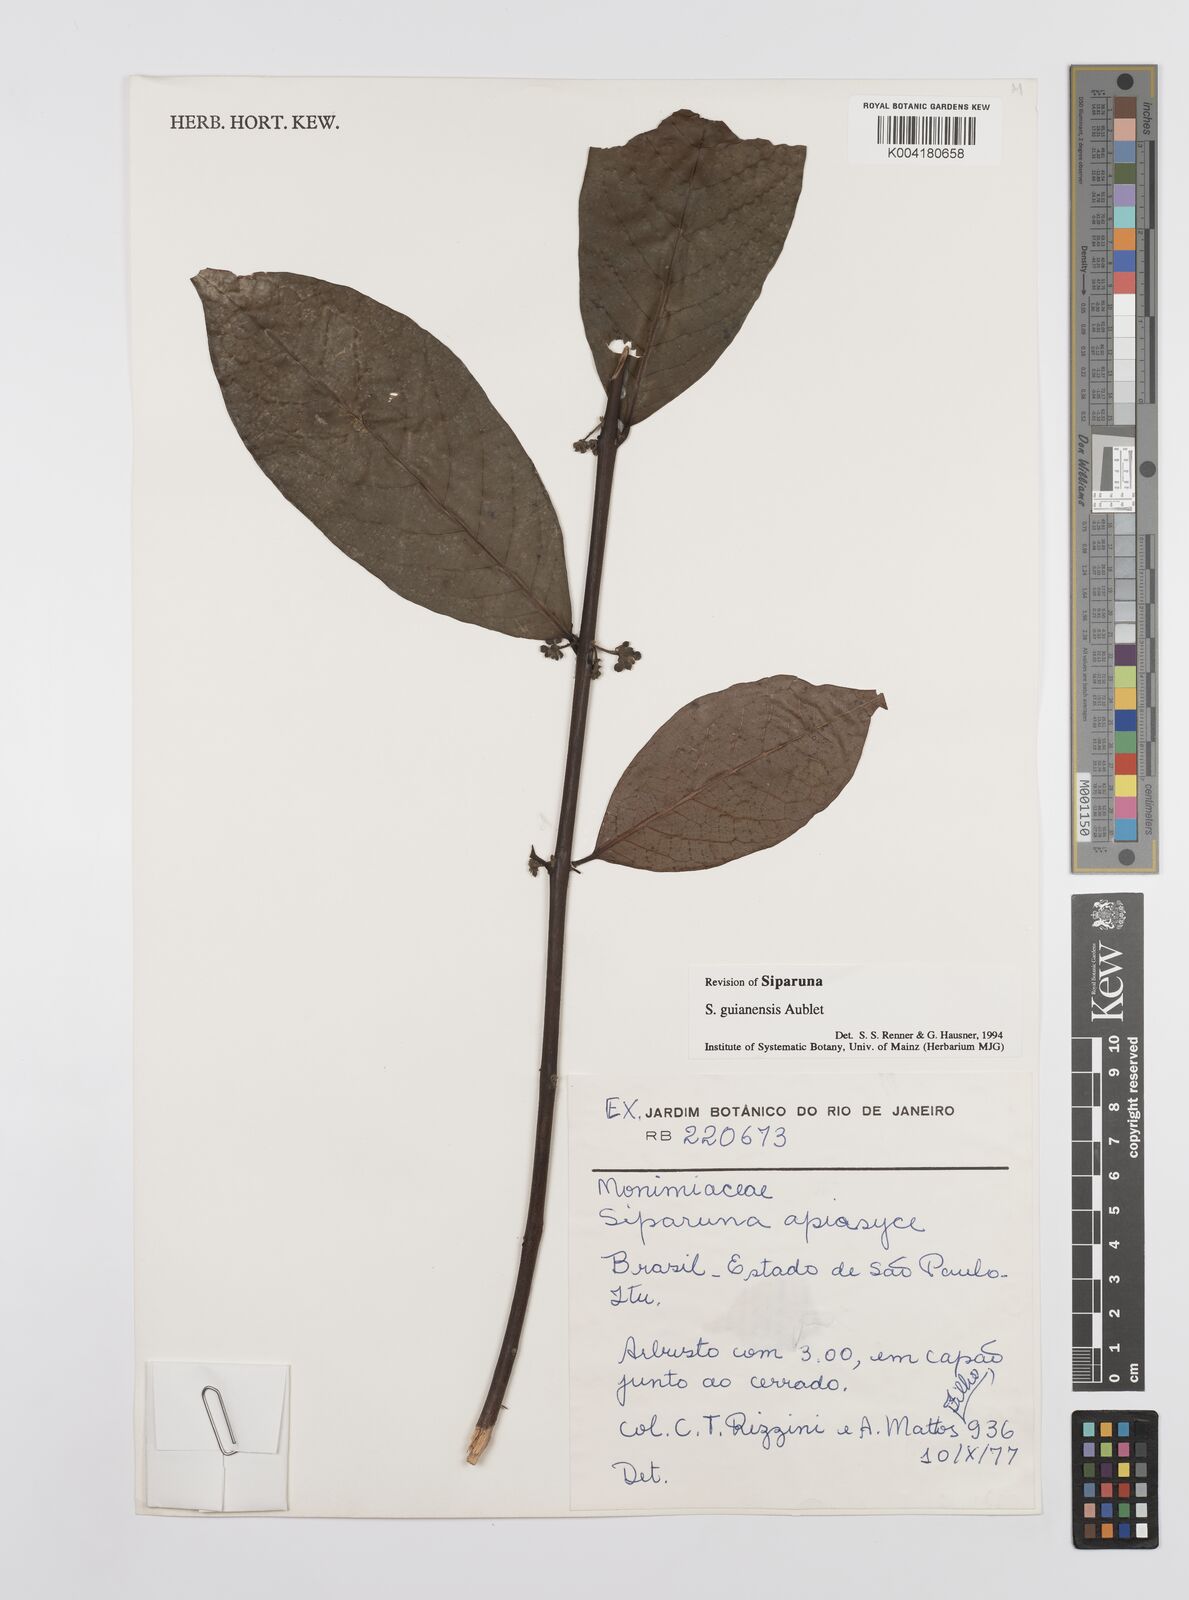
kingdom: Plantae
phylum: Tracheophyta
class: Magnoliopsida
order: Laurales
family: Siparunaceae
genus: Siparuna
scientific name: Siparuna guianensis
